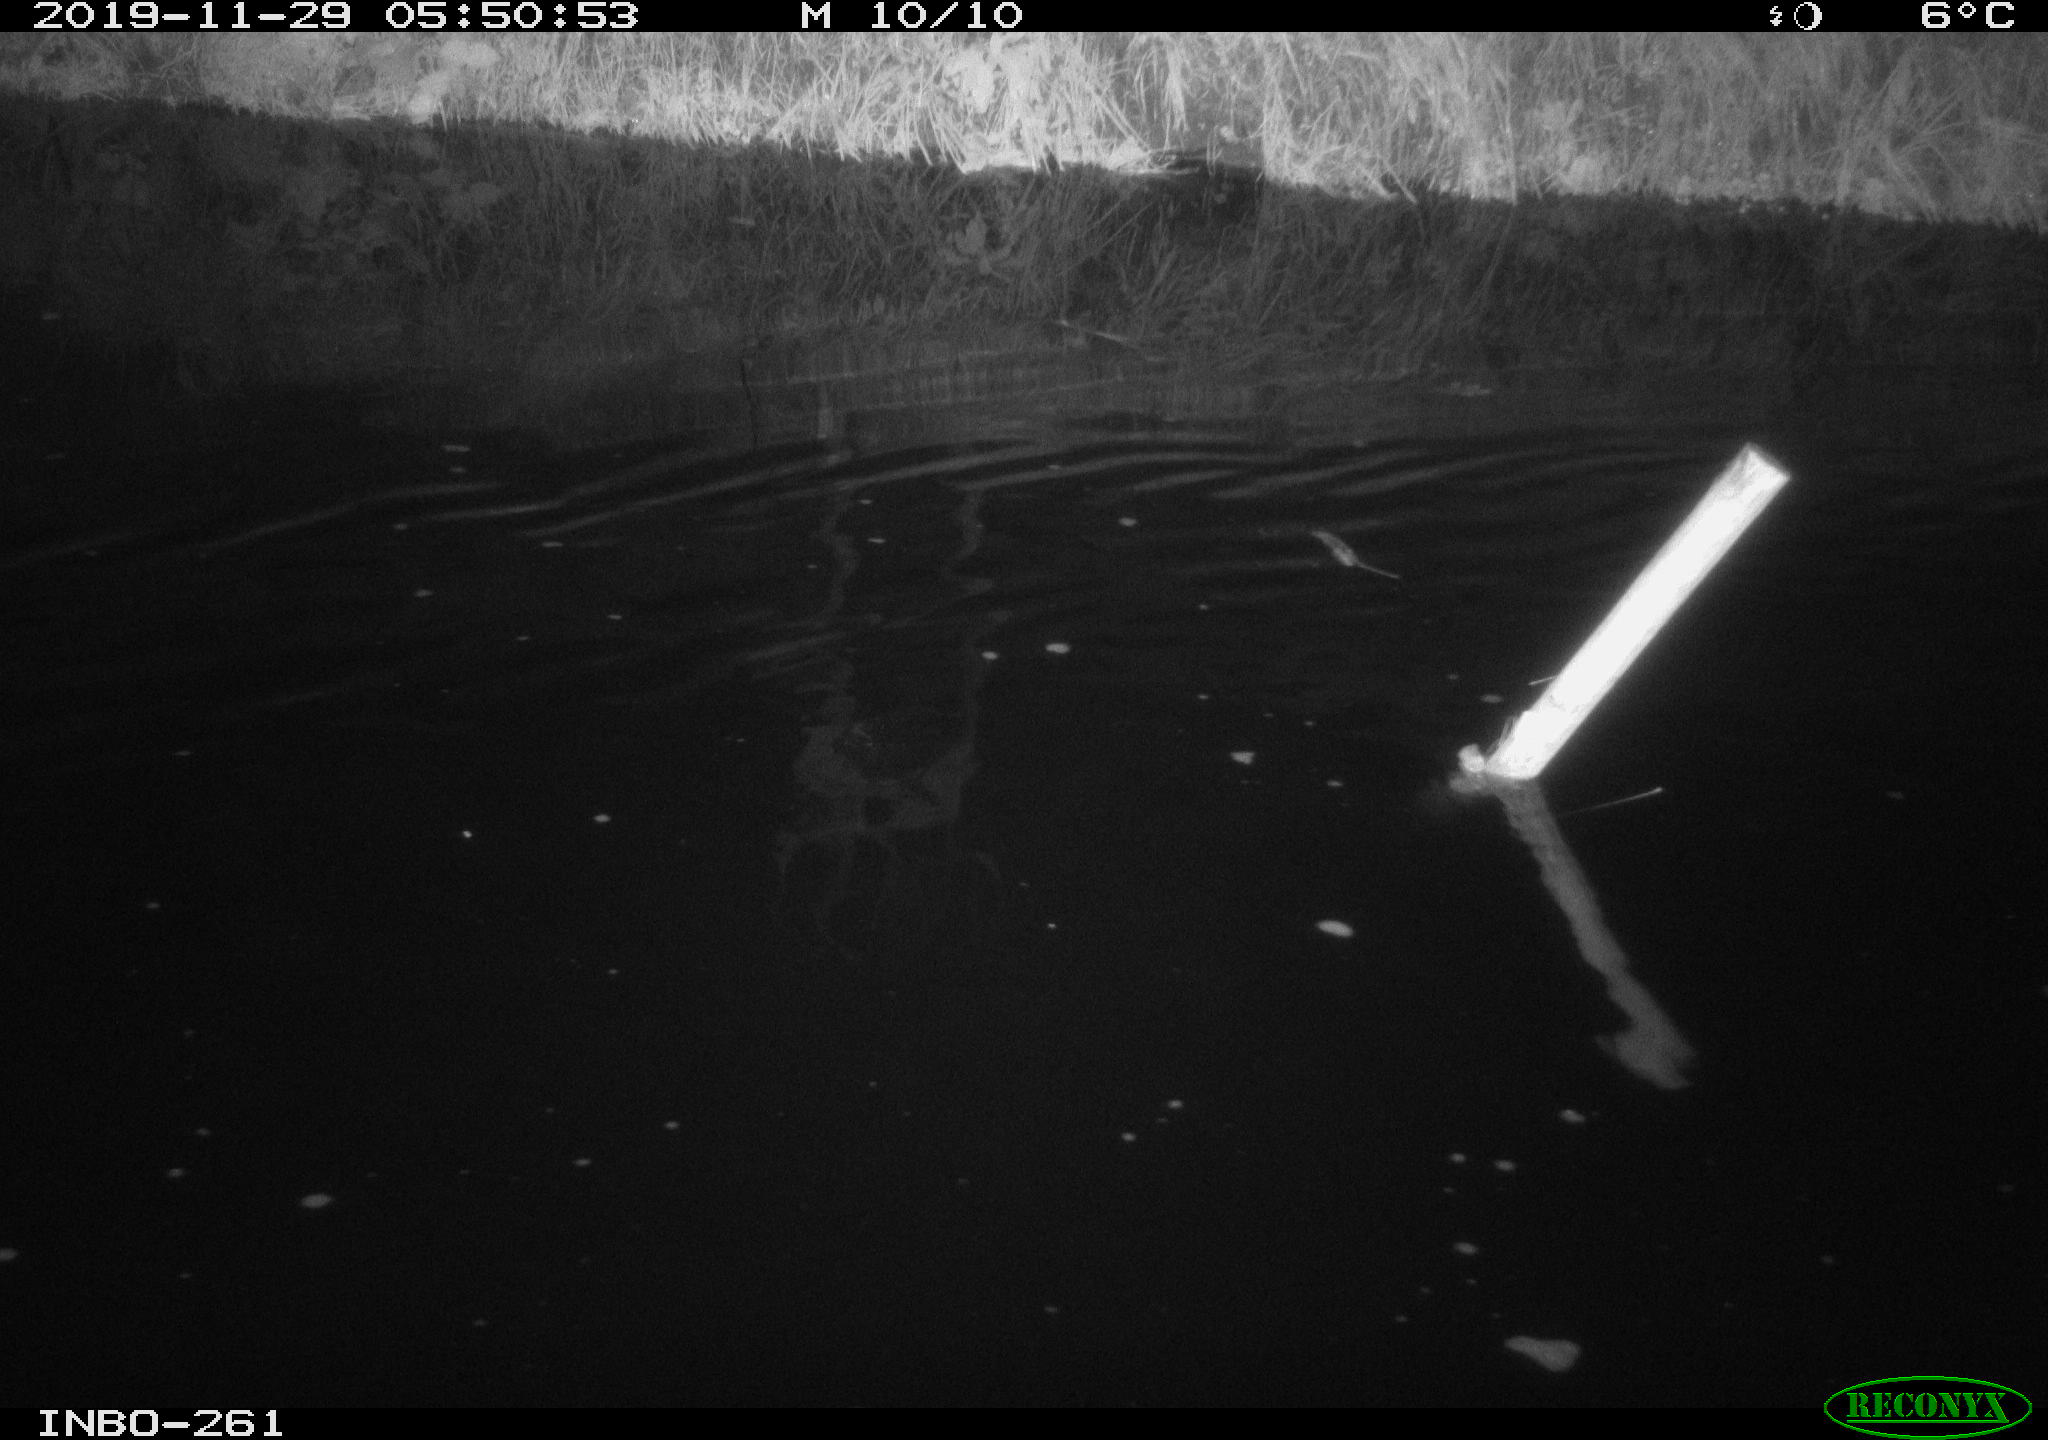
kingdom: Animalia
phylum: Chordata
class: Aves
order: Anseriformes
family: Anatidae
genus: Anas
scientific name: Anas platyrhynchos
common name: Mallard
